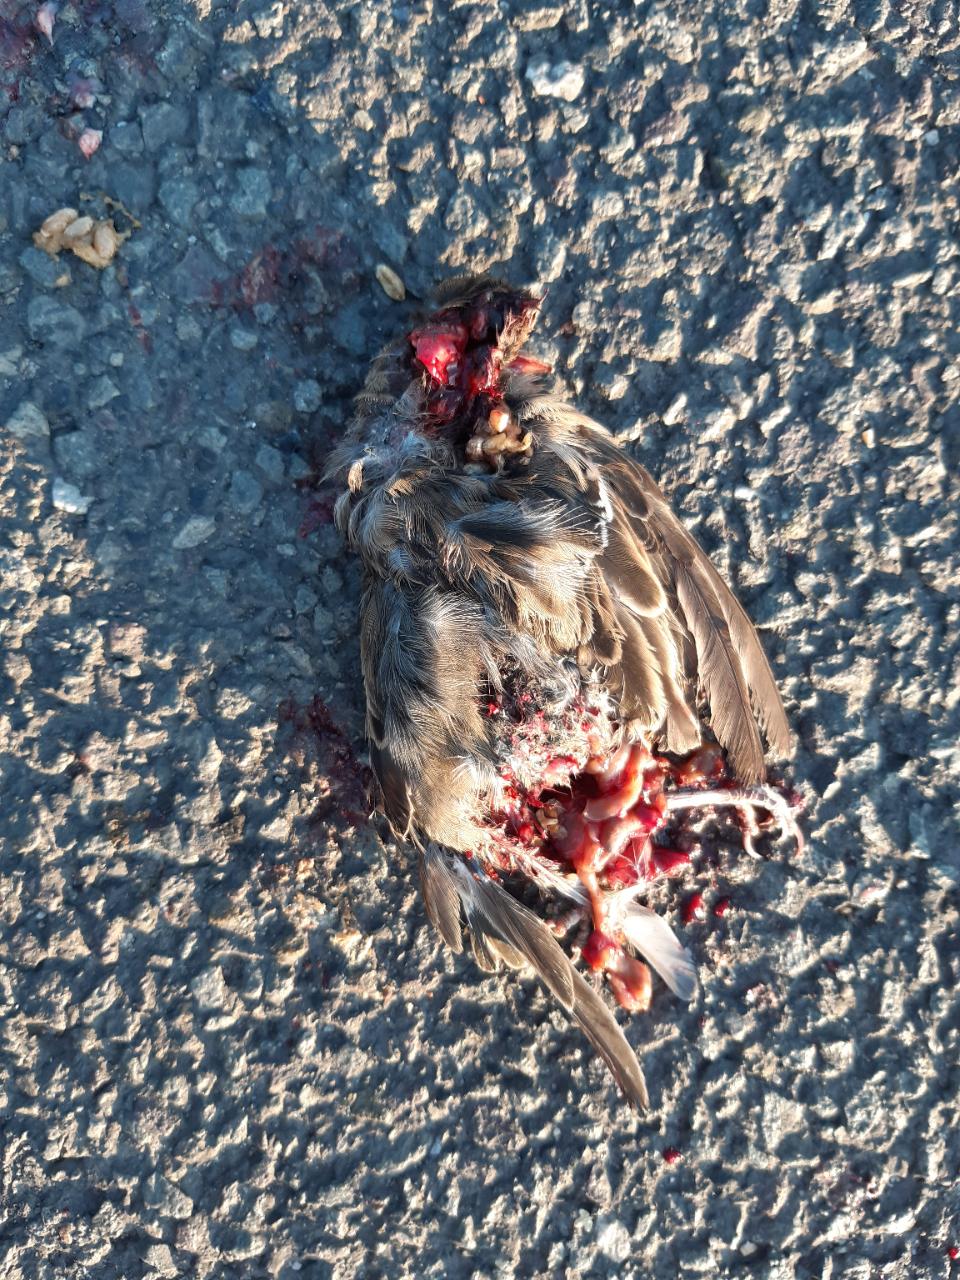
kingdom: Animalia
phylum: Chordata
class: Aves
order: Passeriformes
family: Passeridae
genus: Passer
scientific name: Passer
